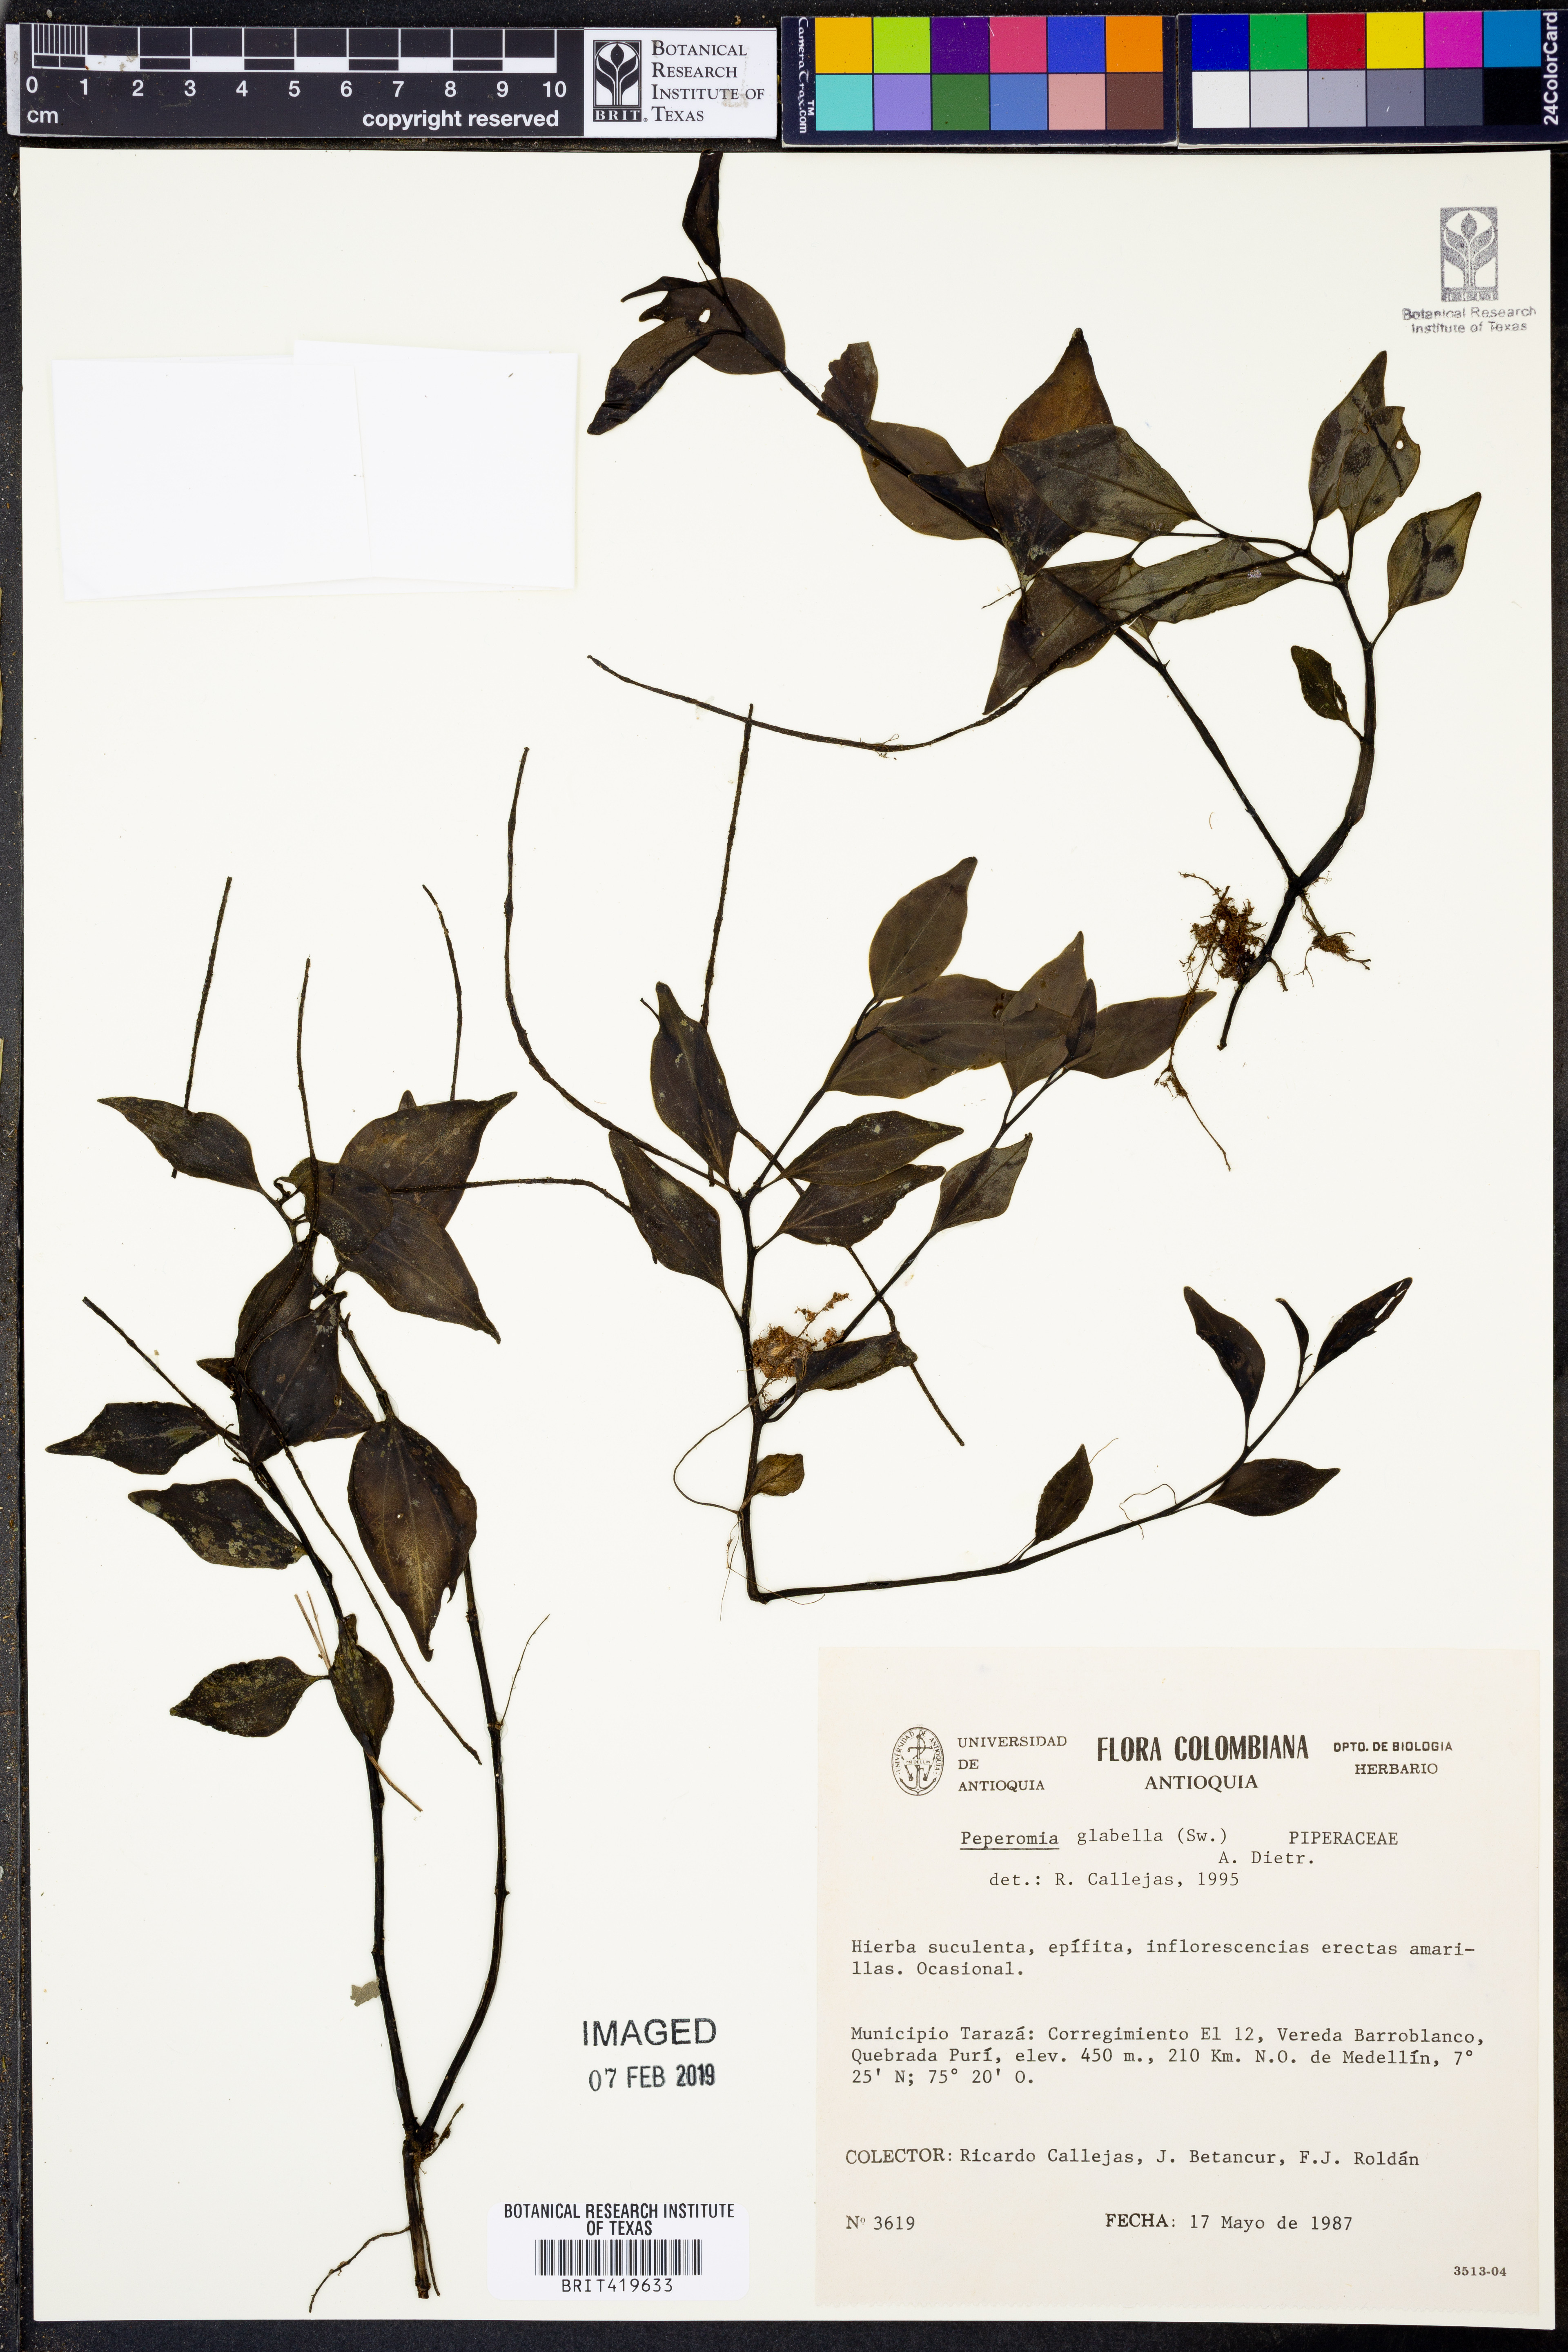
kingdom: Plantae
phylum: Tracheophyta
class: Magnoliopsida
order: Piperales
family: Piperaceae
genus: Peperomia
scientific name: Peperomia glabella
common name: Cypress peperomia
